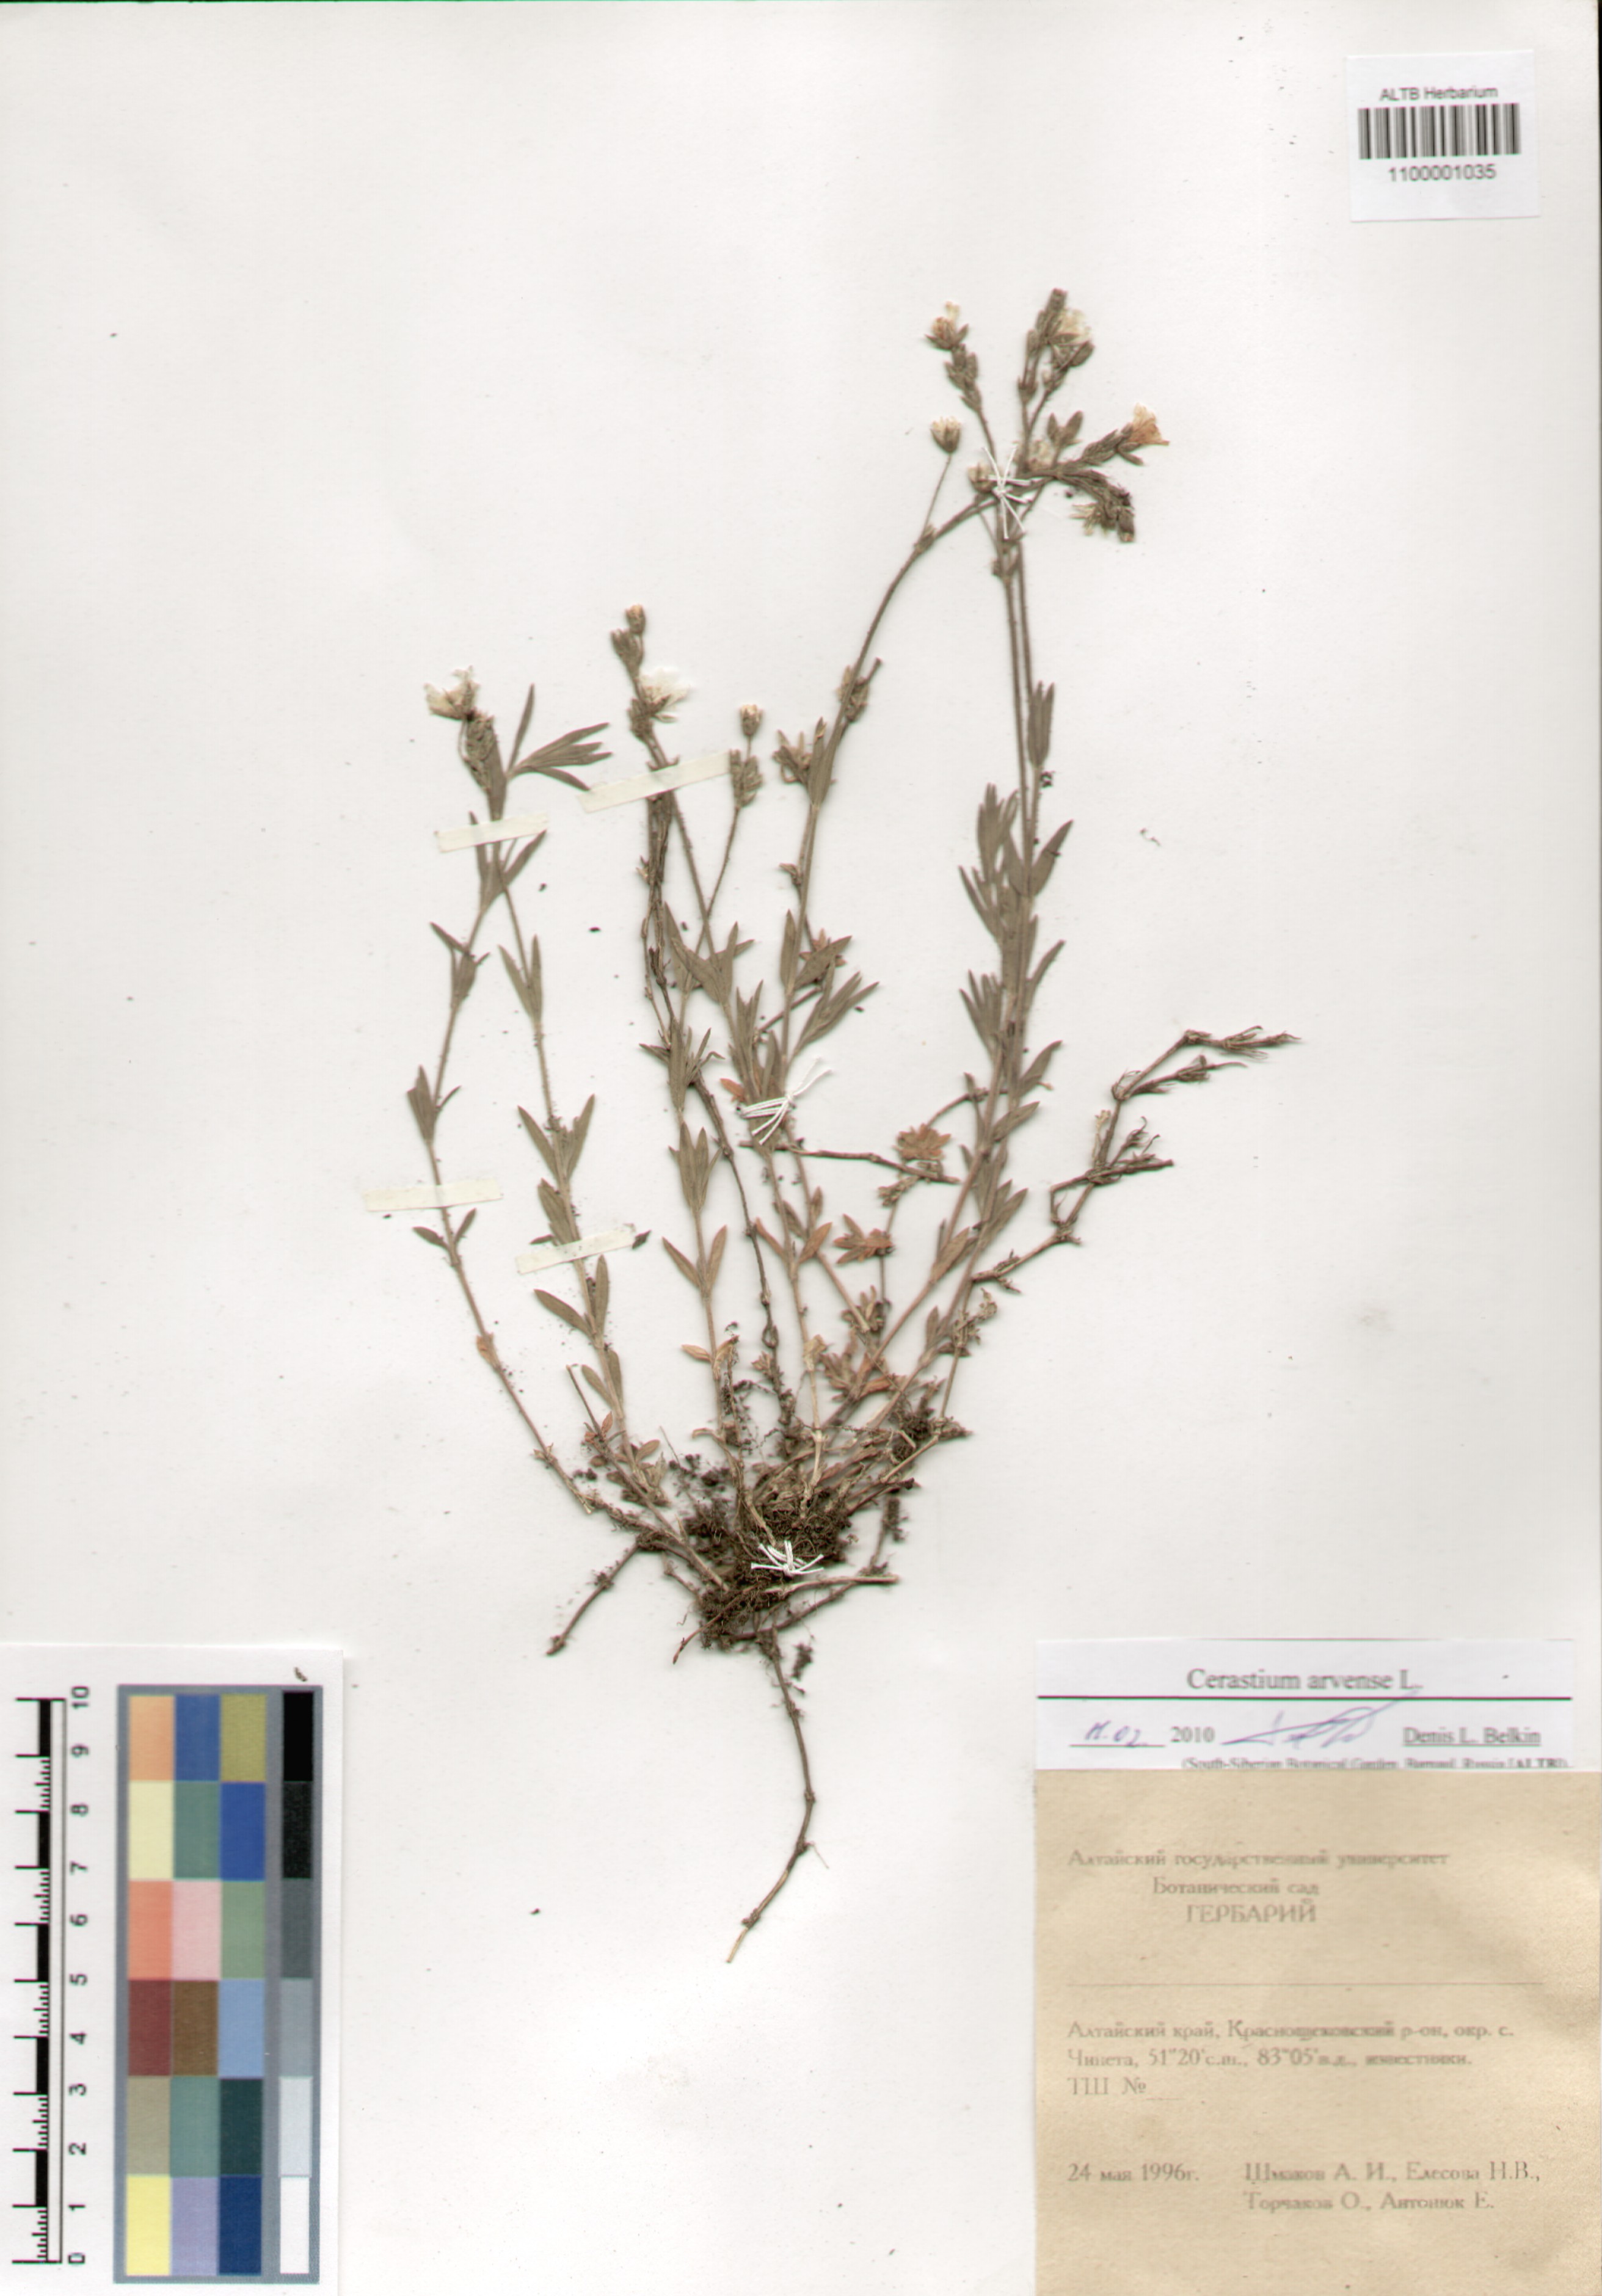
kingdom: Plantae
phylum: Tracheophyta
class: Magnoliopsida
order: Caryophyllales
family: Caryophyllaceae
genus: Cerastium
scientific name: Cerastium arvense
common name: Field mouse-ear
